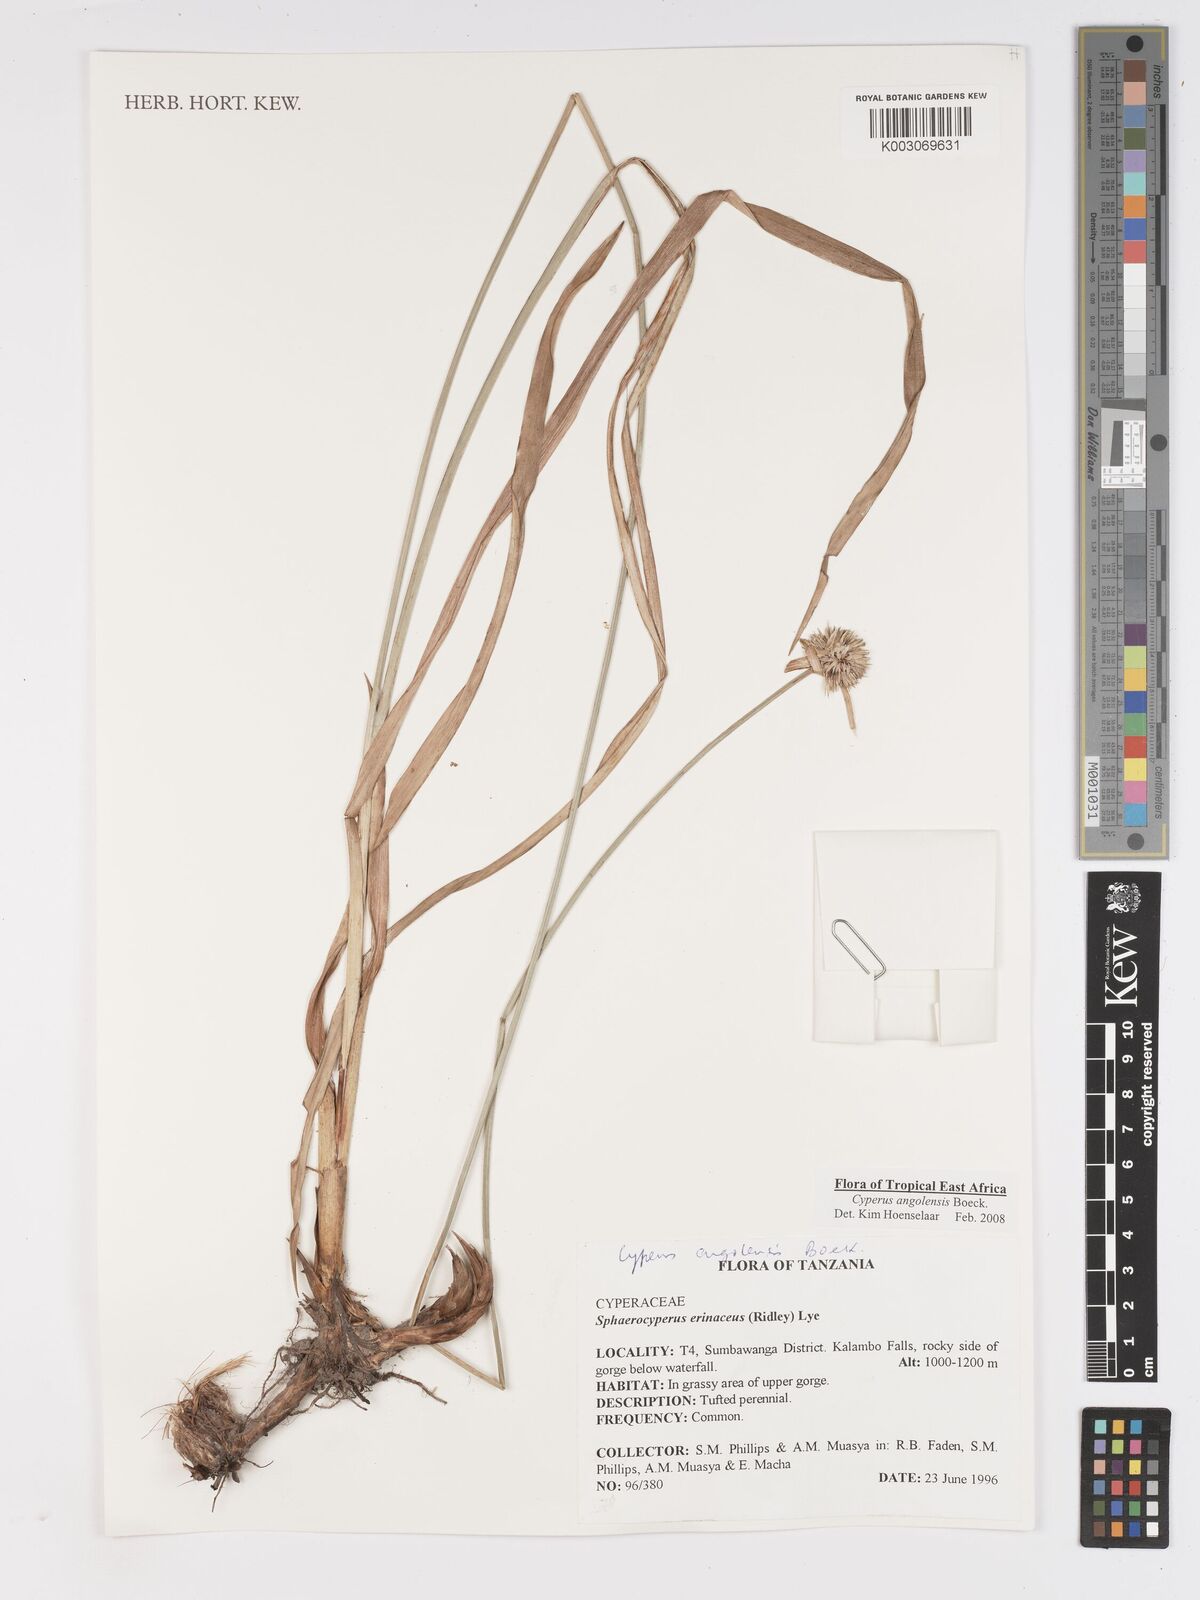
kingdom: Plantae
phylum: Tracheophyta
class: Liliopsida
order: Poales
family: Cyperaceae
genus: Cyperus
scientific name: Cyperus angolensis
